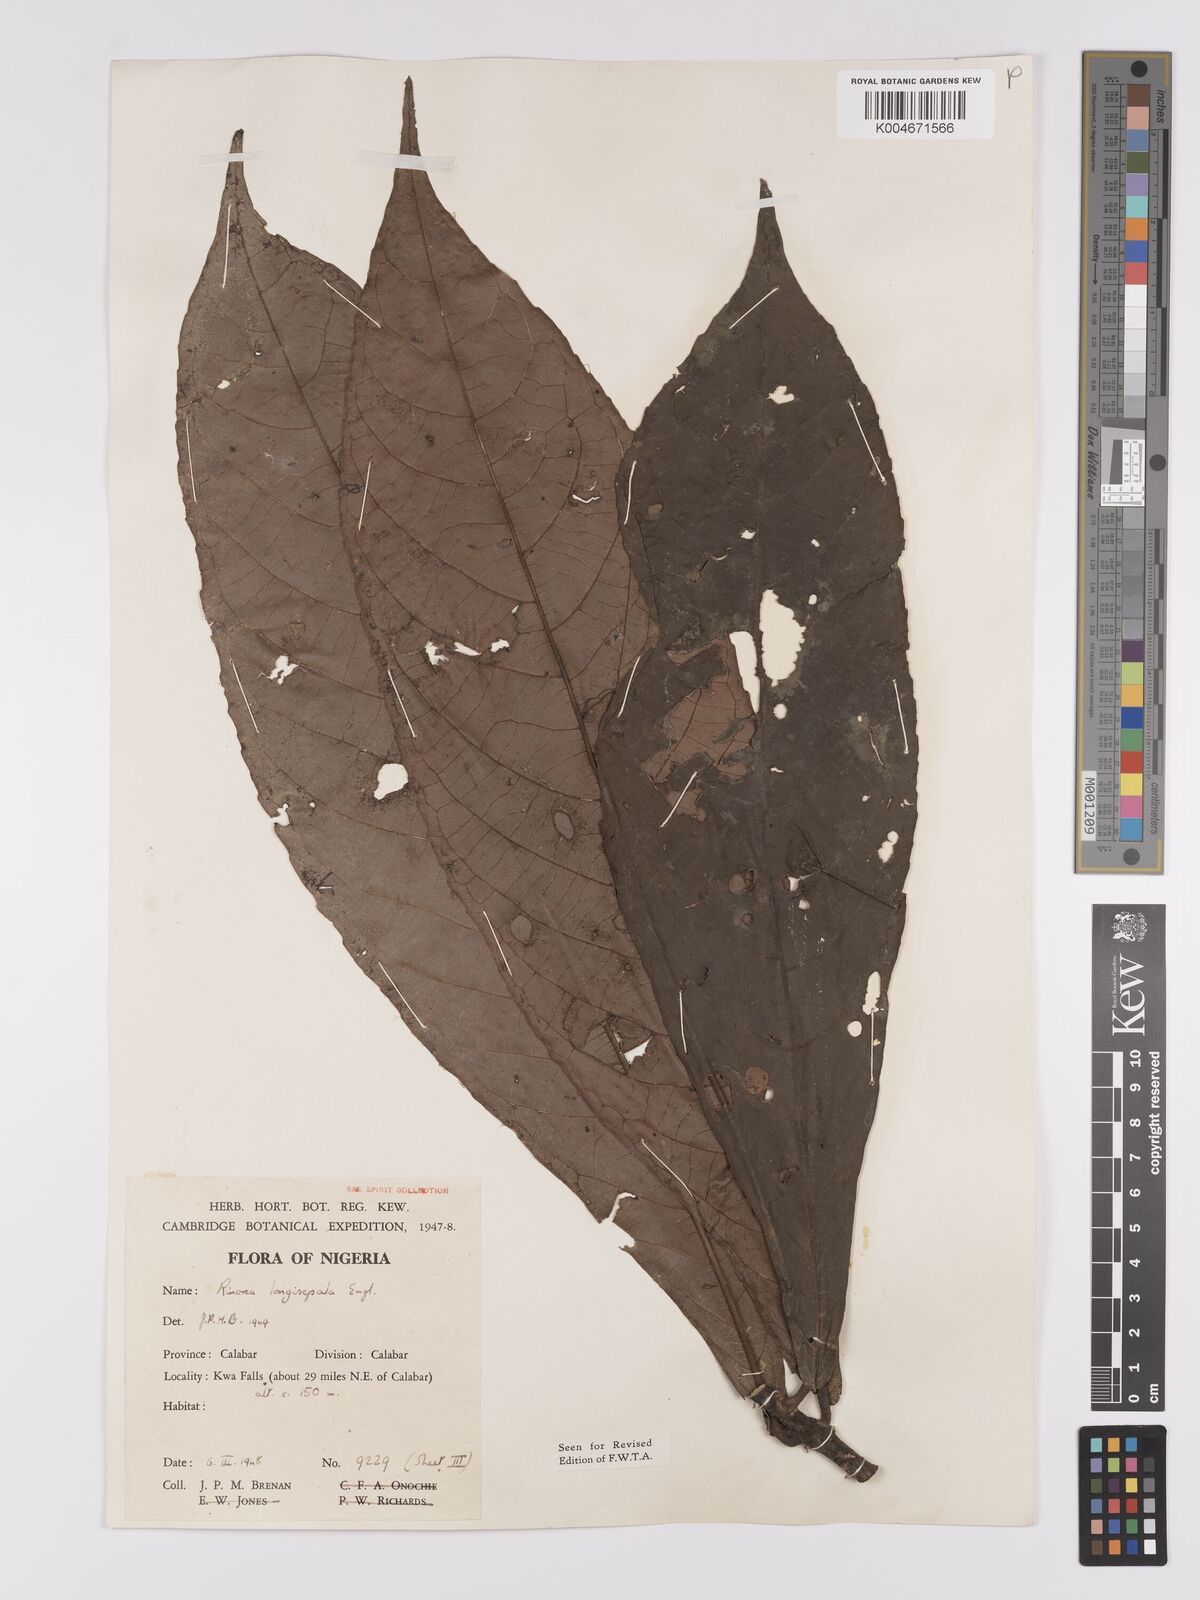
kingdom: Plantae
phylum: Tracheophyta
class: Magnoliopsida
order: Malpighiales
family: Violaceae
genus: Rinorea
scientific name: Rinorea longisepala
